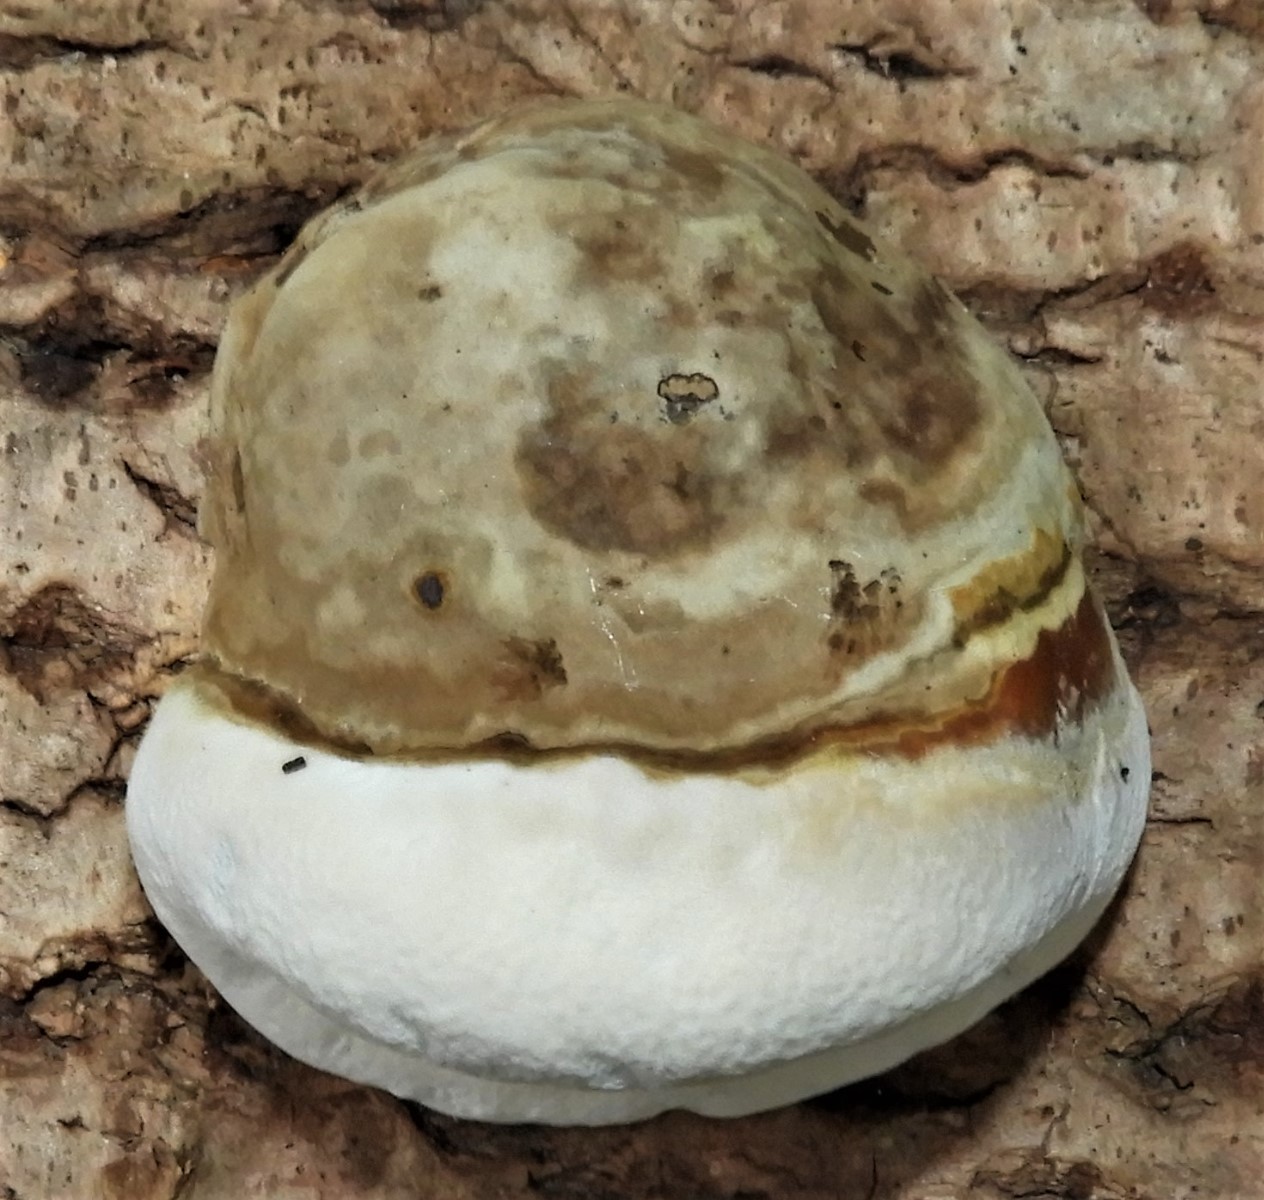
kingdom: Fungi
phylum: Basidiomycota
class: Agaricomycetes
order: Polyporales
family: Polyporaceae
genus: Fomes
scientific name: Fomes fomentarius
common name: tøndersvamp
